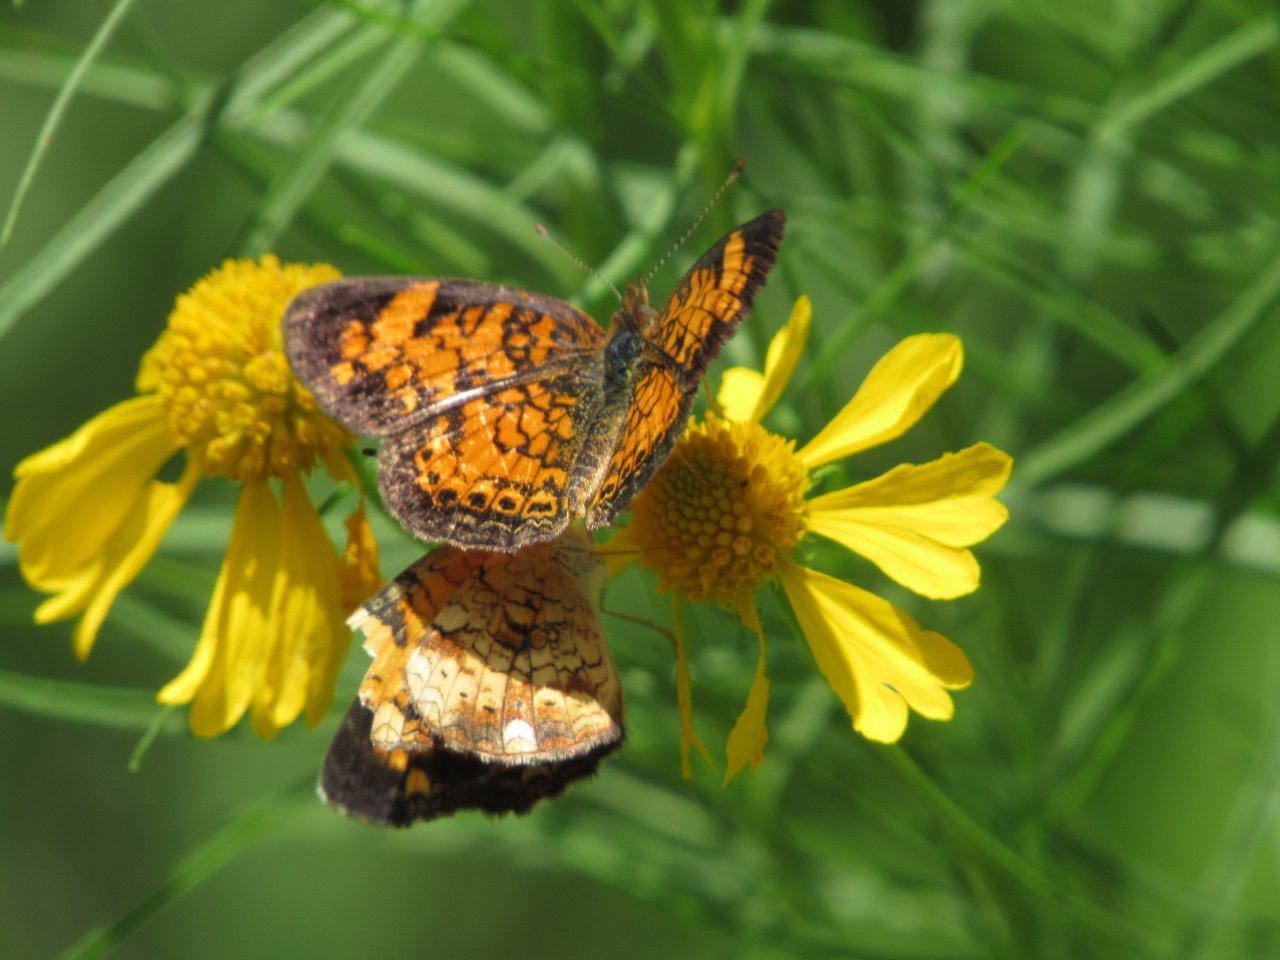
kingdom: Animalia
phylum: Arthropoda
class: Insecta
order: Lepidoptera
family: Nymphalidae
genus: Phyciodes
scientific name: Phyciodes tharos
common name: Pearl Crescent
